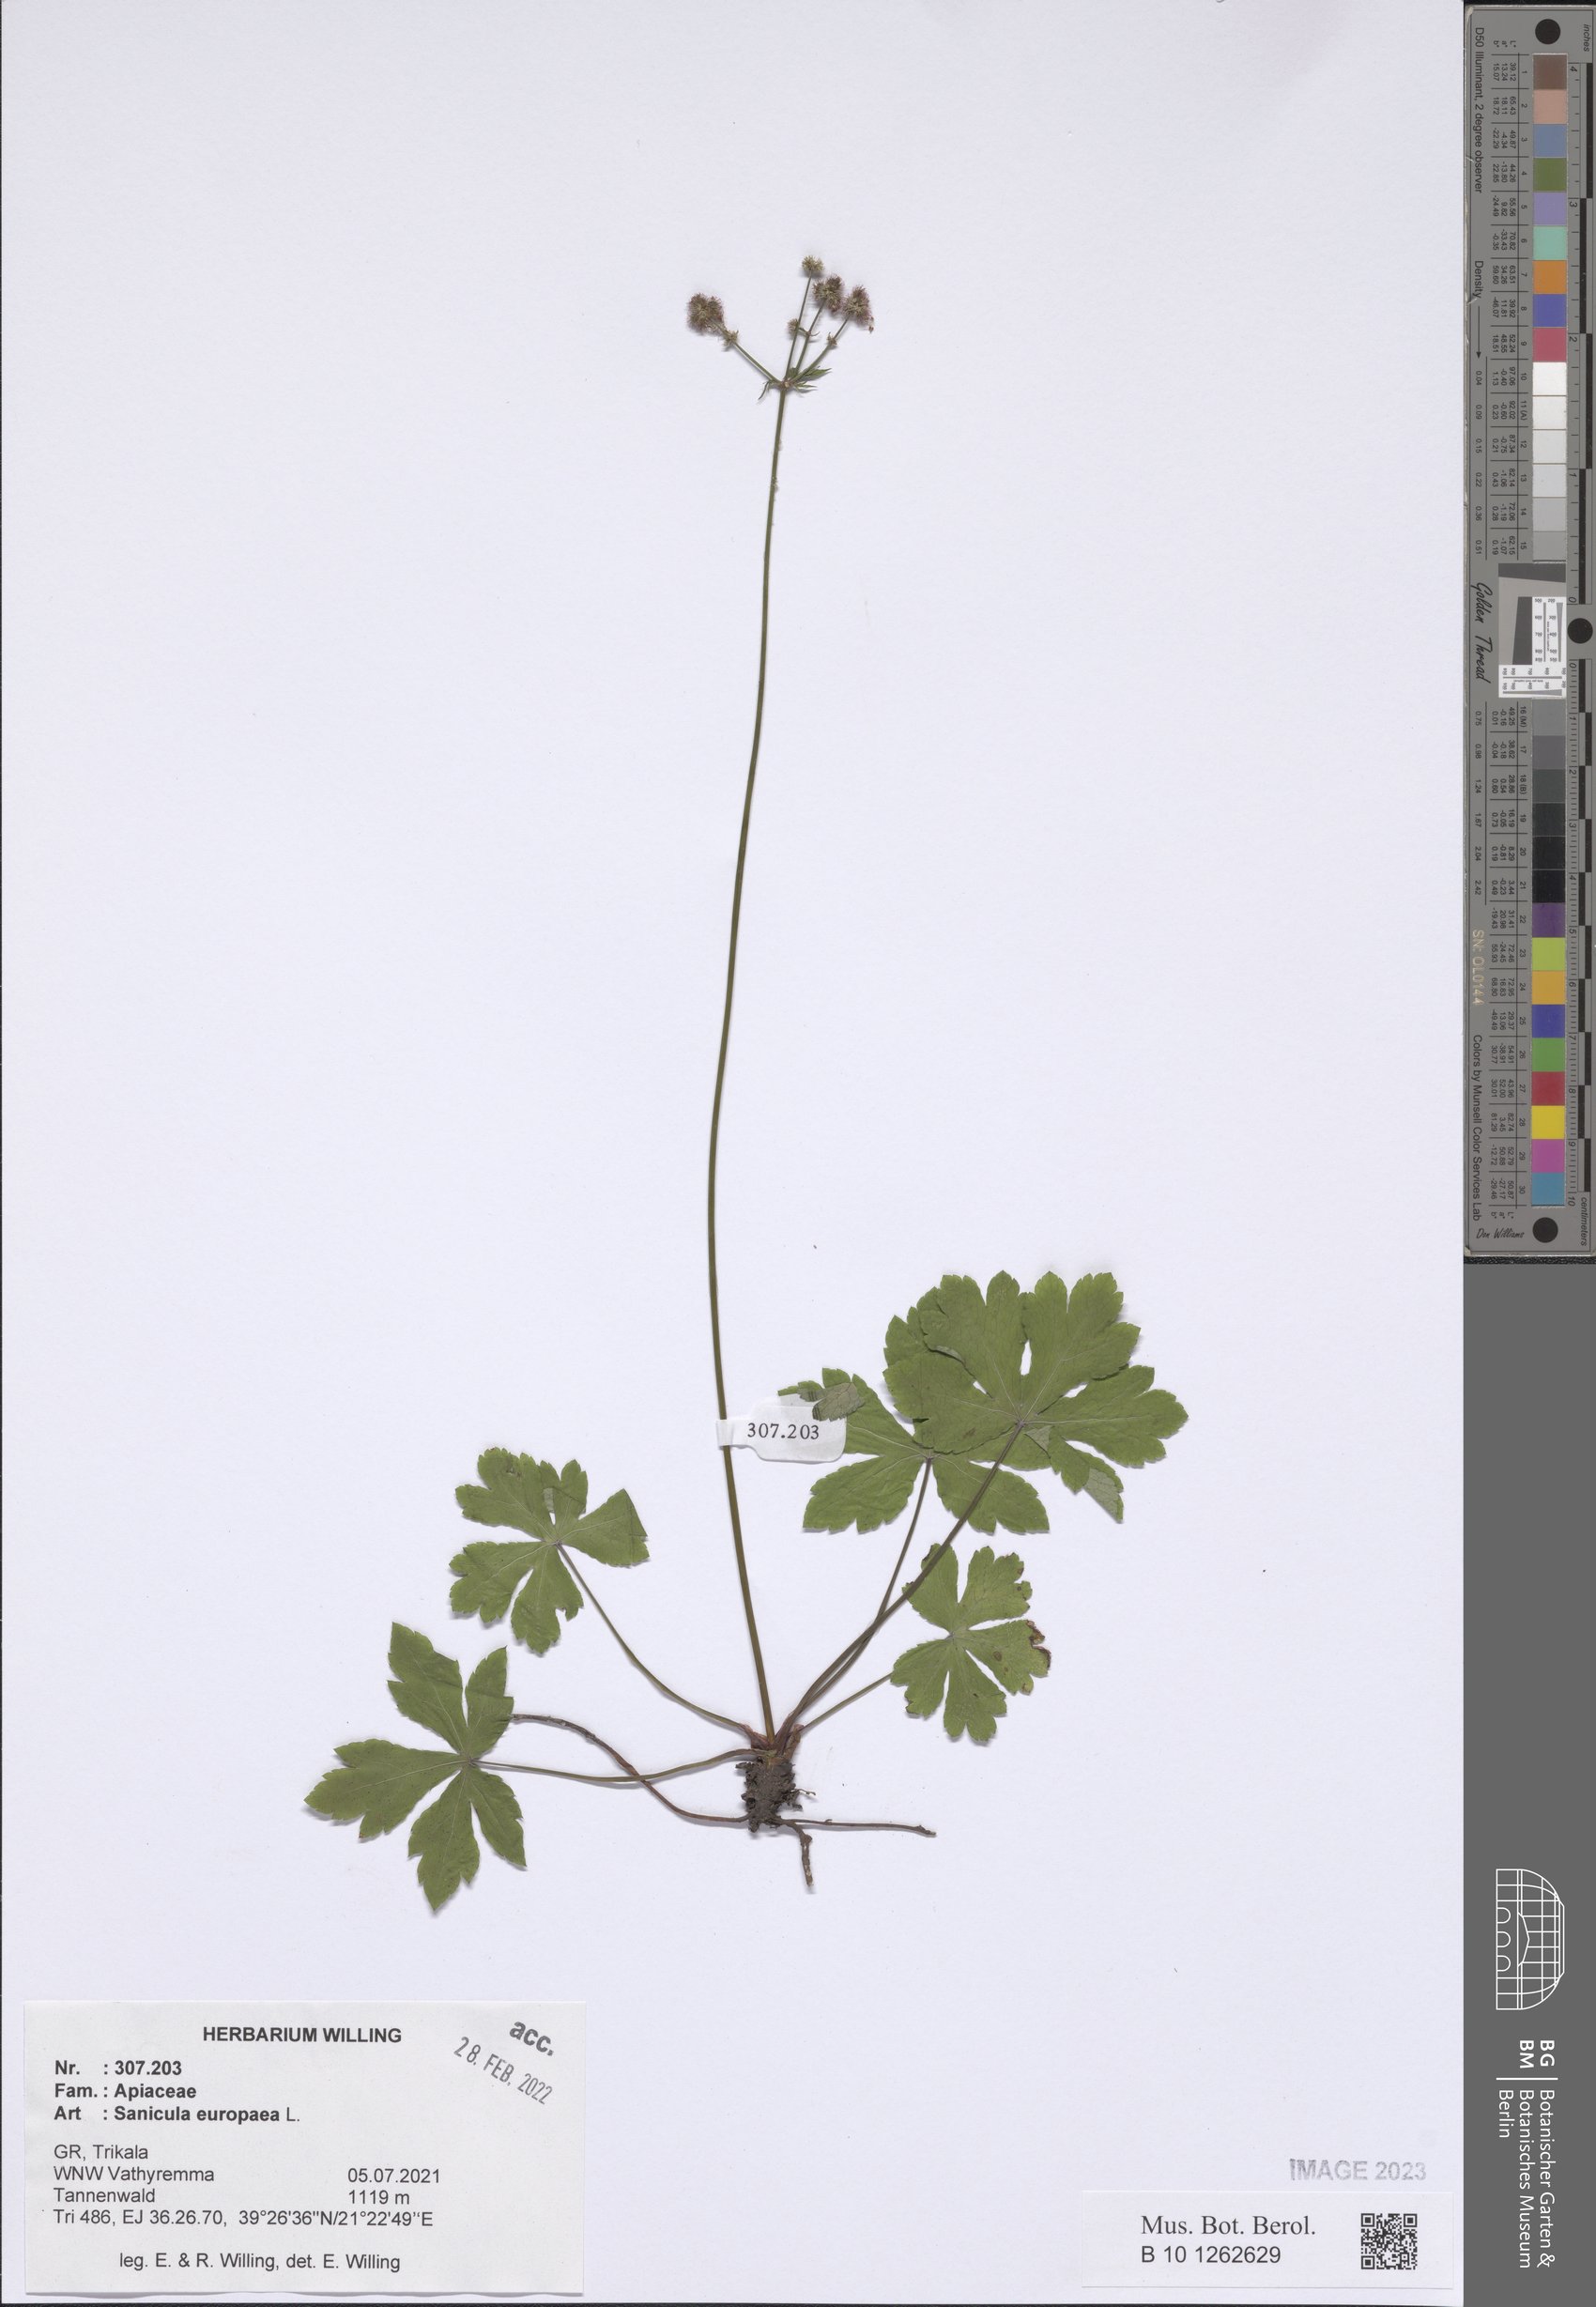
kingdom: Plantae
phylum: Tracheophyta
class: Magnoliopsida
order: Apiales
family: Apiaceae
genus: Sanicula
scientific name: Sanicula europaea
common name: Sanicle
